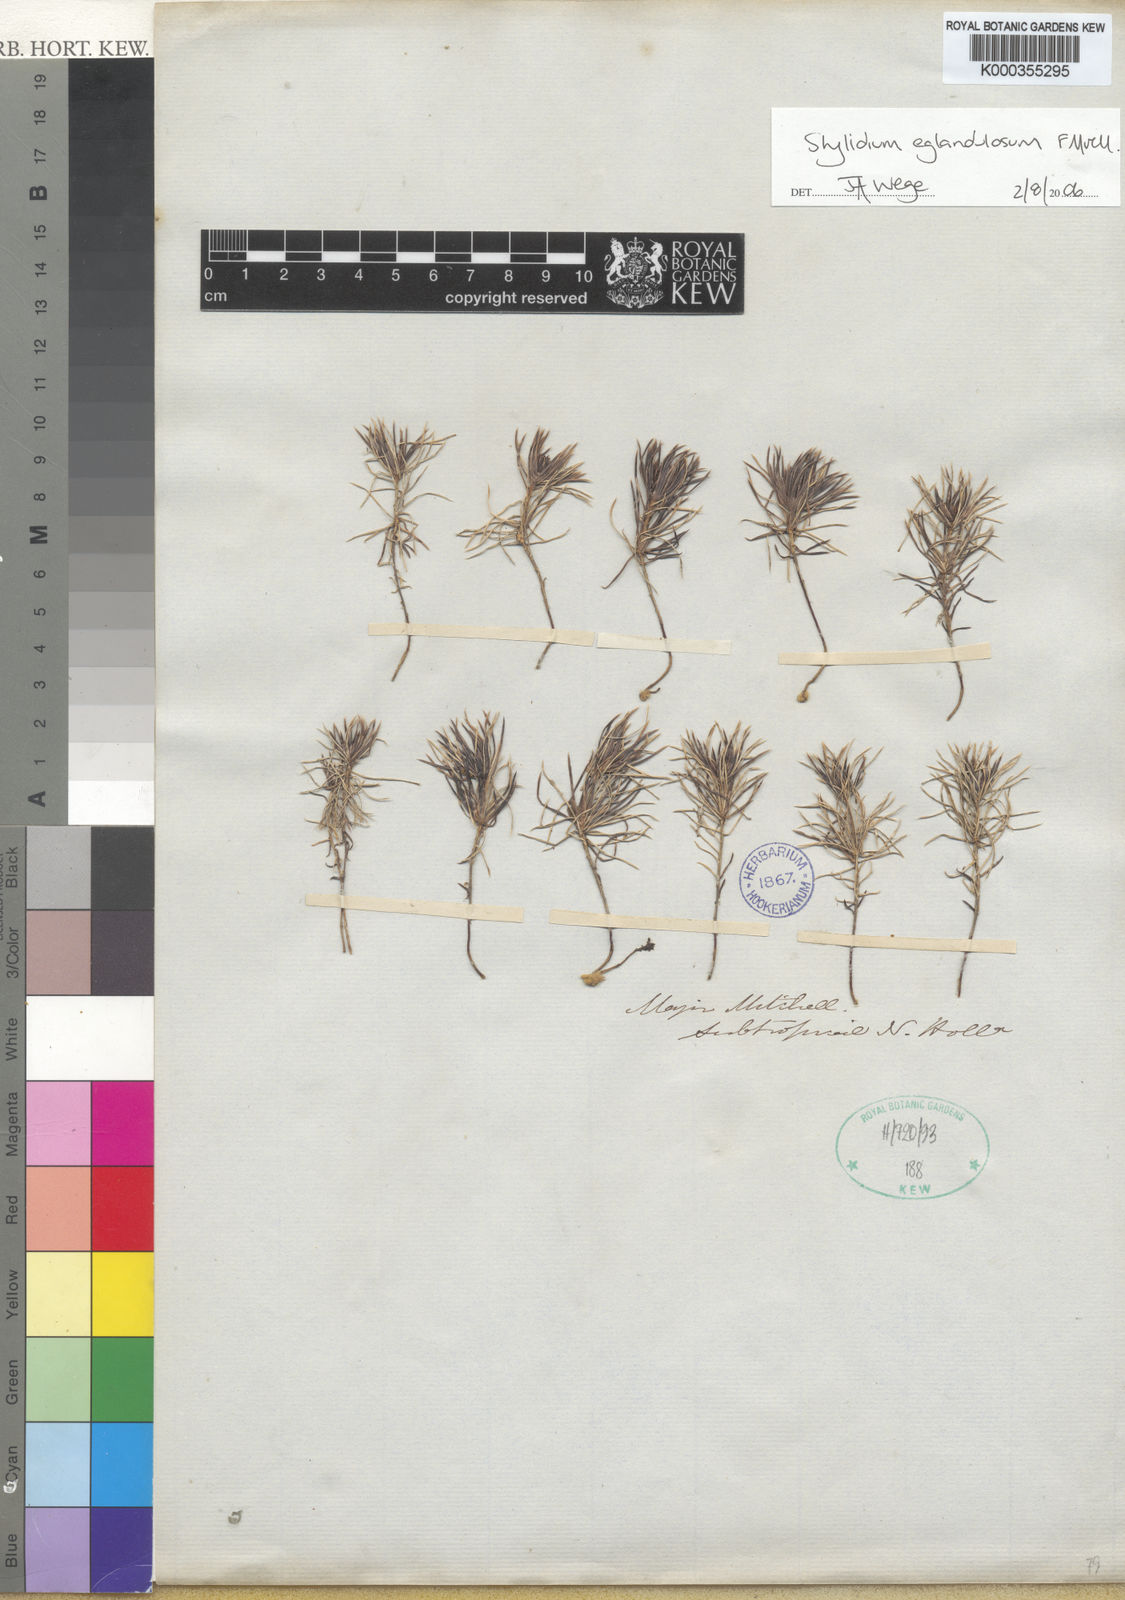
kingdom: Plantae
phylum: Tracheophyta
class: Magnoliopsida
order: Asterales
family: Stylidiaceae
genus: Stylidium
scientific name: Stylidium eglandulosum
